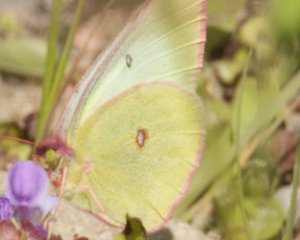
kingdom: Animalia
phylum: Arthropoda
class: Insecta
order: Lepidoptera
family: Pieridae
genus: Colias
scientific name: Colias interior
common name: Pink-edged Sulphur
